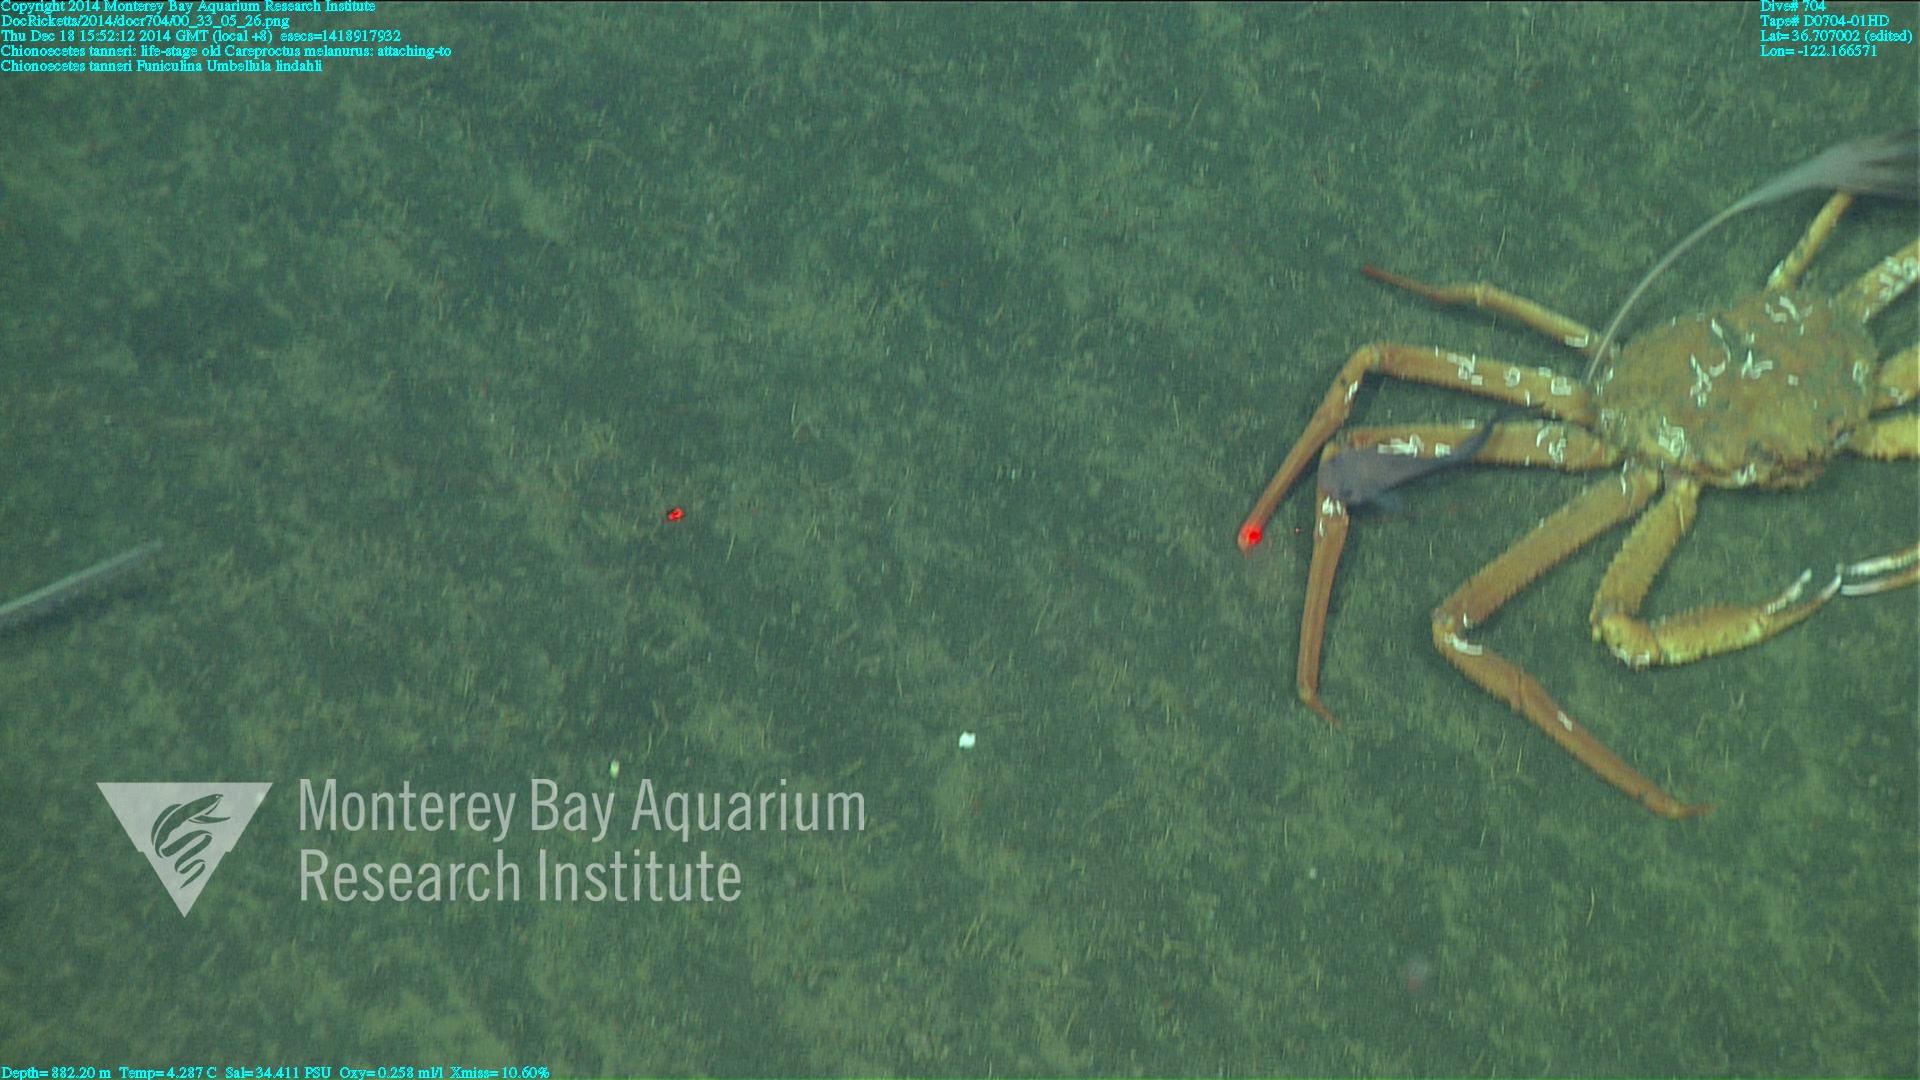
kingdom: Animalia
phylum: Cnidaria
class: Anthozoa
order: Scleralcyonacea
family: Umbellulidae
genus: Umbellula
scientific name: Umbellula lindahli
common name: Lindahl's droopy sea pen
